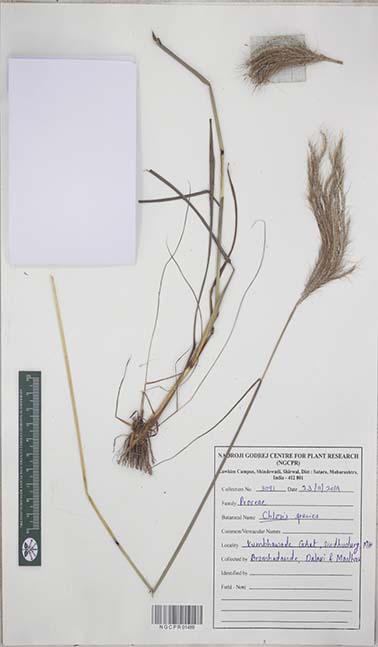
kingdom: Plantae
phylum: Tracheophyta
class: Liliopsida
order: Poales
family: Poaceae
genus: Chloris
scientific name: Chloris
